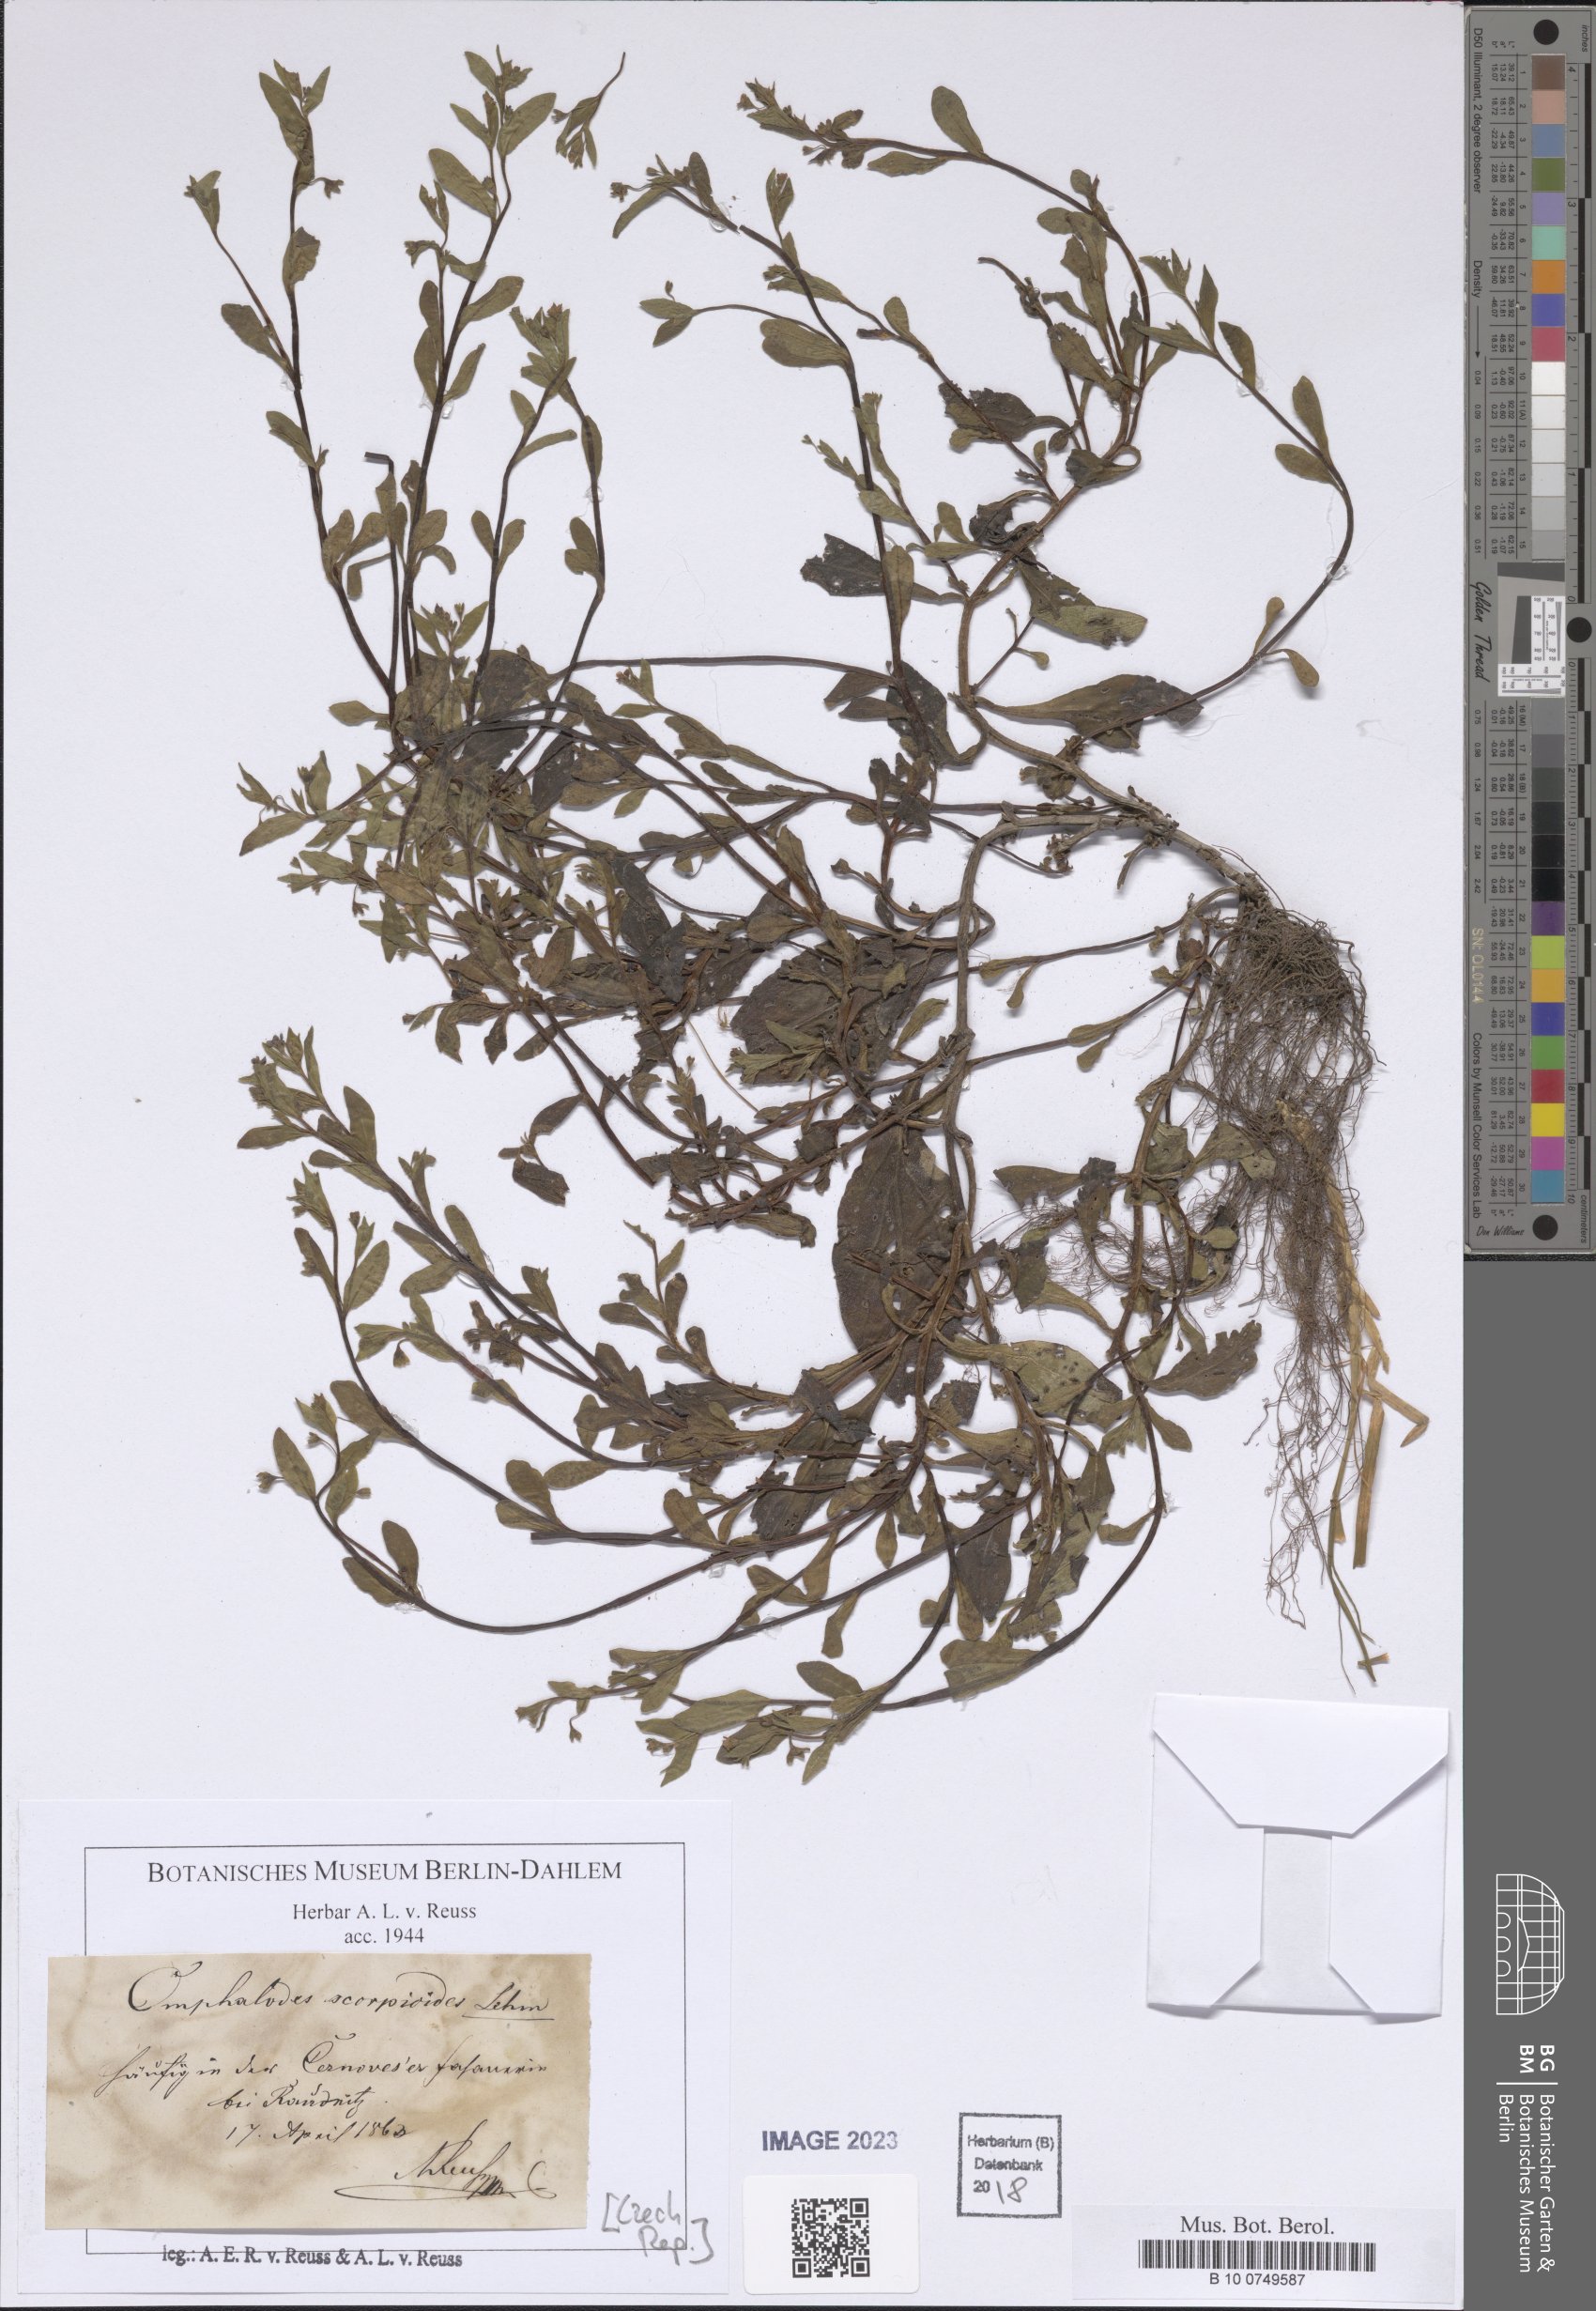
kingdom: Plantae
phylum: Tracheophyta
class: Magnoliopsida
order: Boraginales
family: Boraginaceae
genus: Memoremea
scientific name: Memoremea scorpioides
